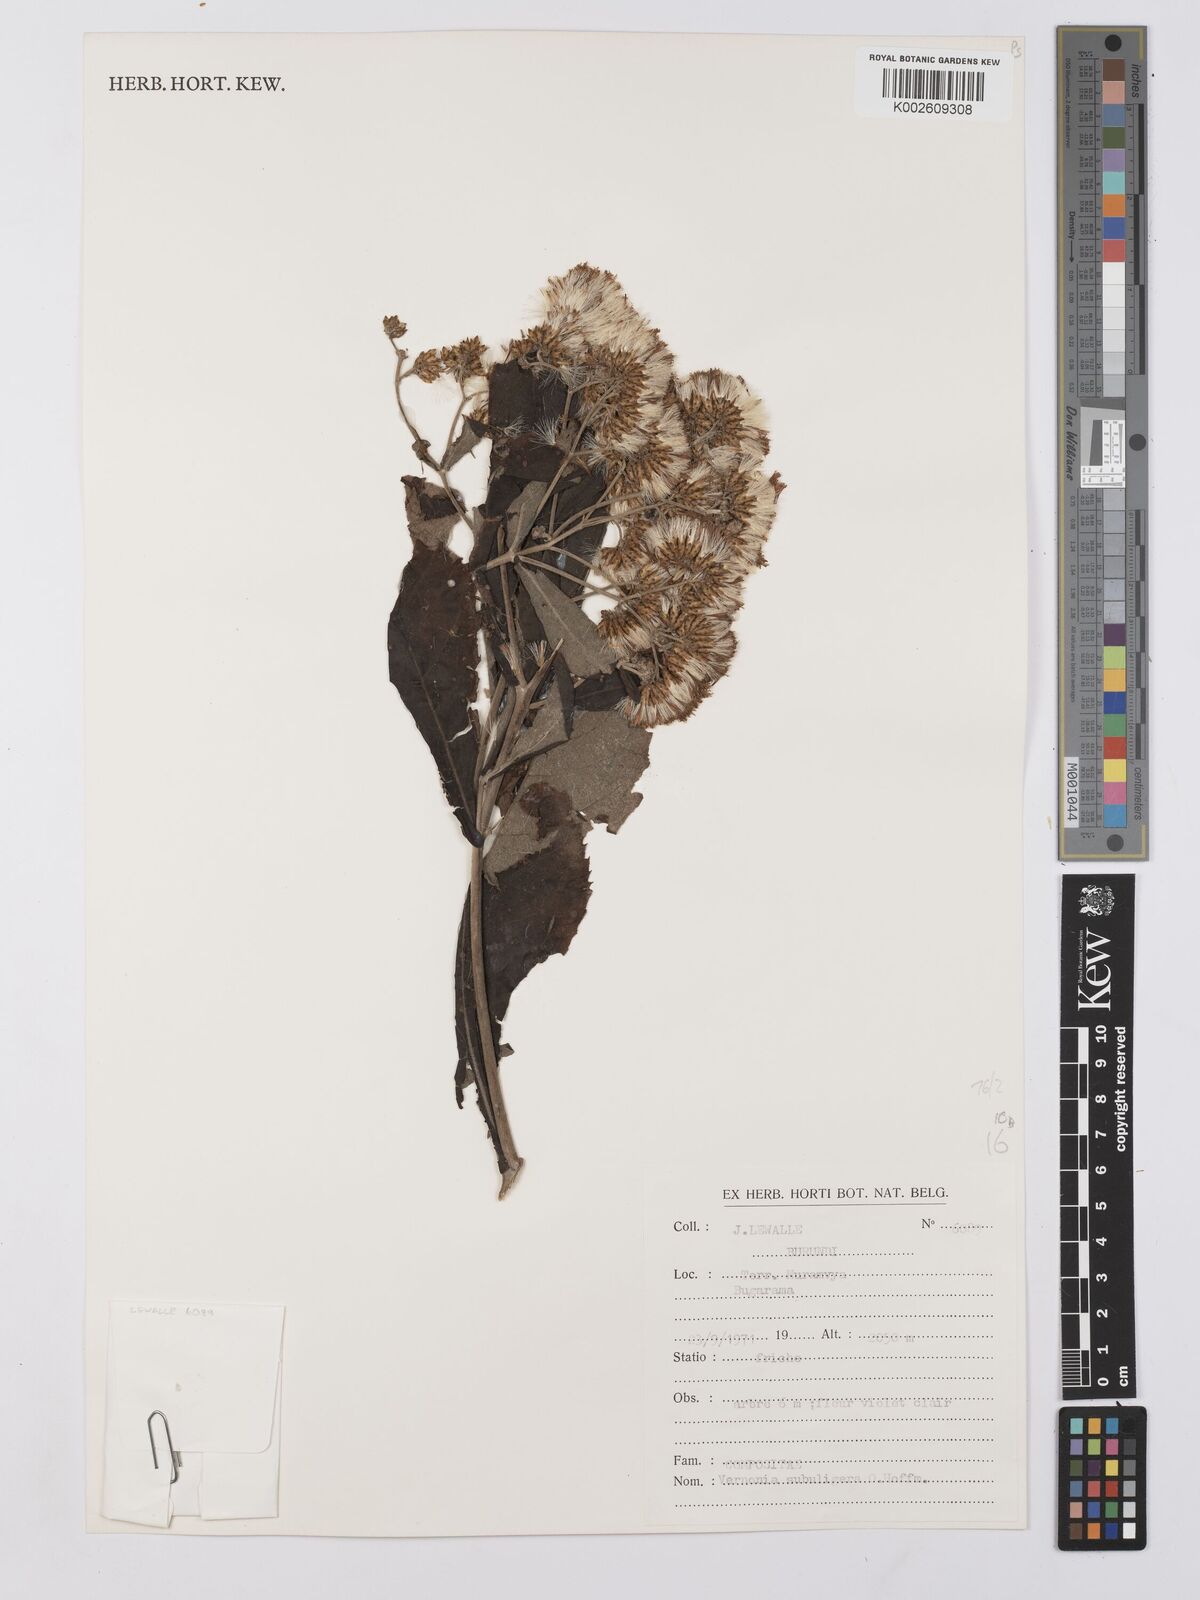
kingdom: Plantae
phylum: Tracheophyta
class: Magnoliopsida
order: Asterales
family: Asteraceae
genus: Gymnanthemum
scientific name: Gymnanthemum myrianthum
